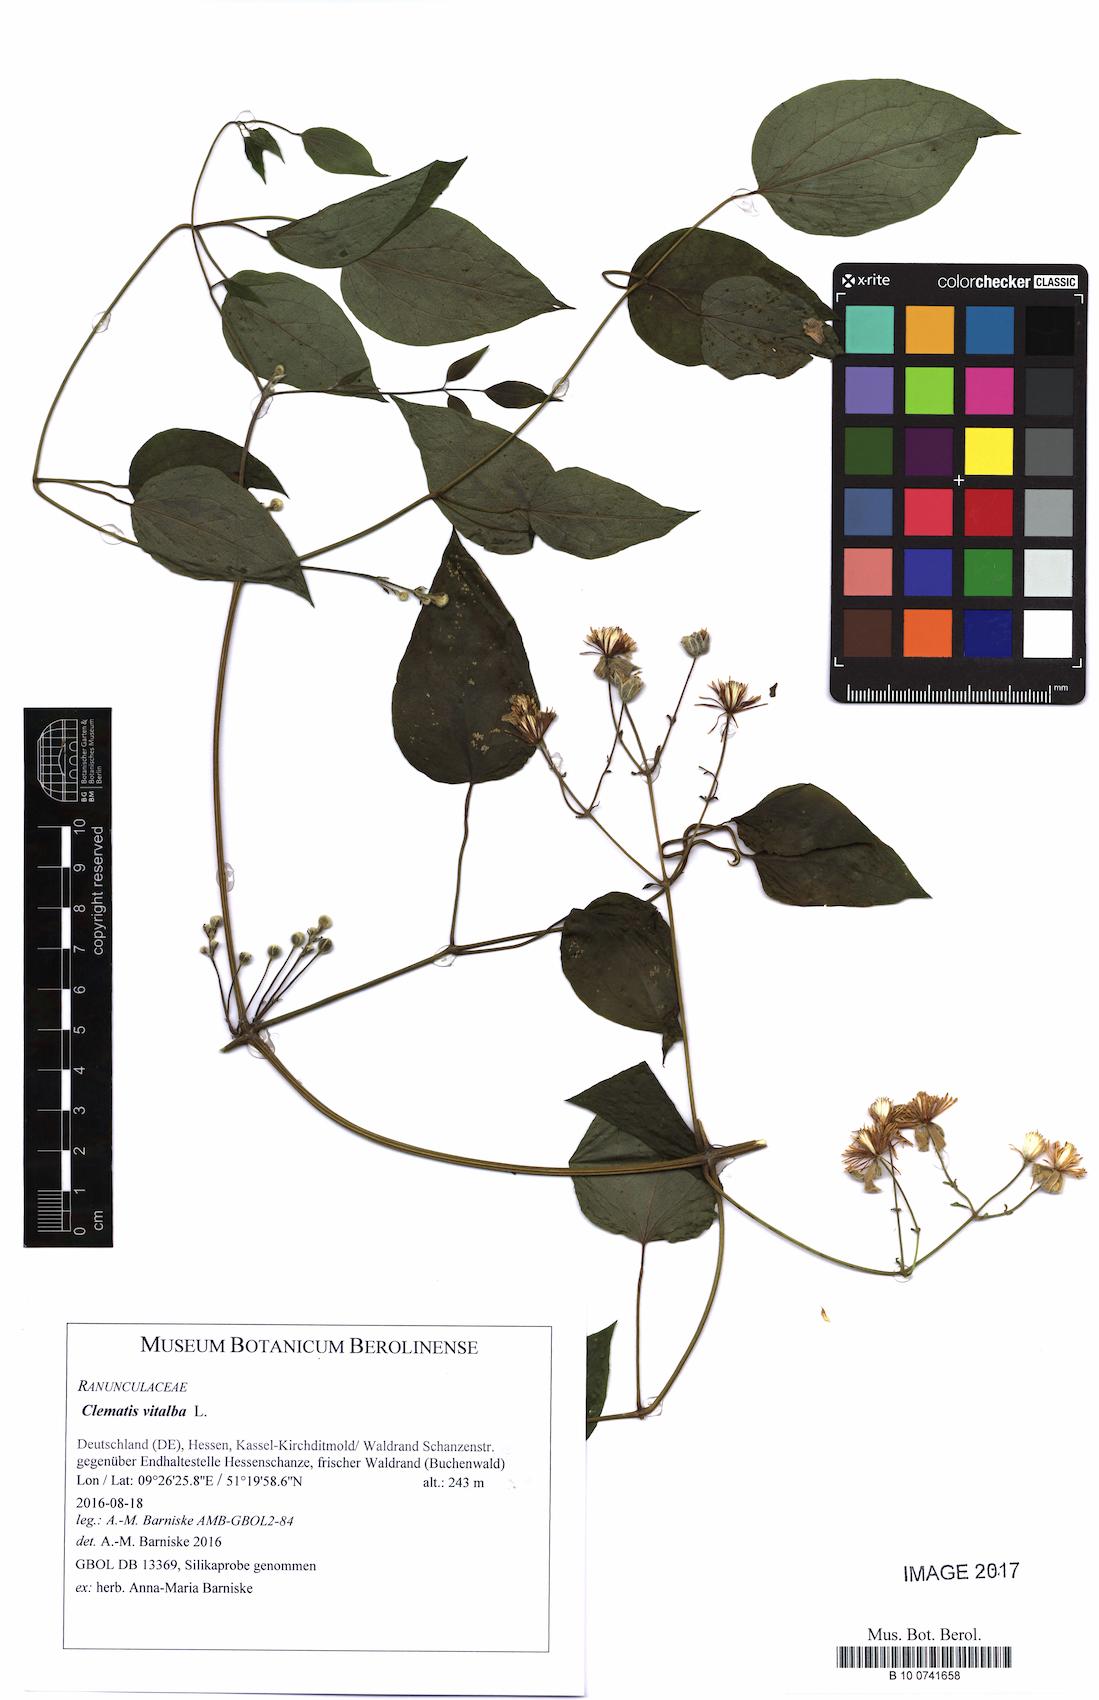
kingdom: Plantae
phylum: Tracheophyta
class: Magnoliopsida
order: Ranunculales
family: Ranunculaceae
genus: Clematis
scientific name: Clematis vitalba
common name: Evergreen clematis
